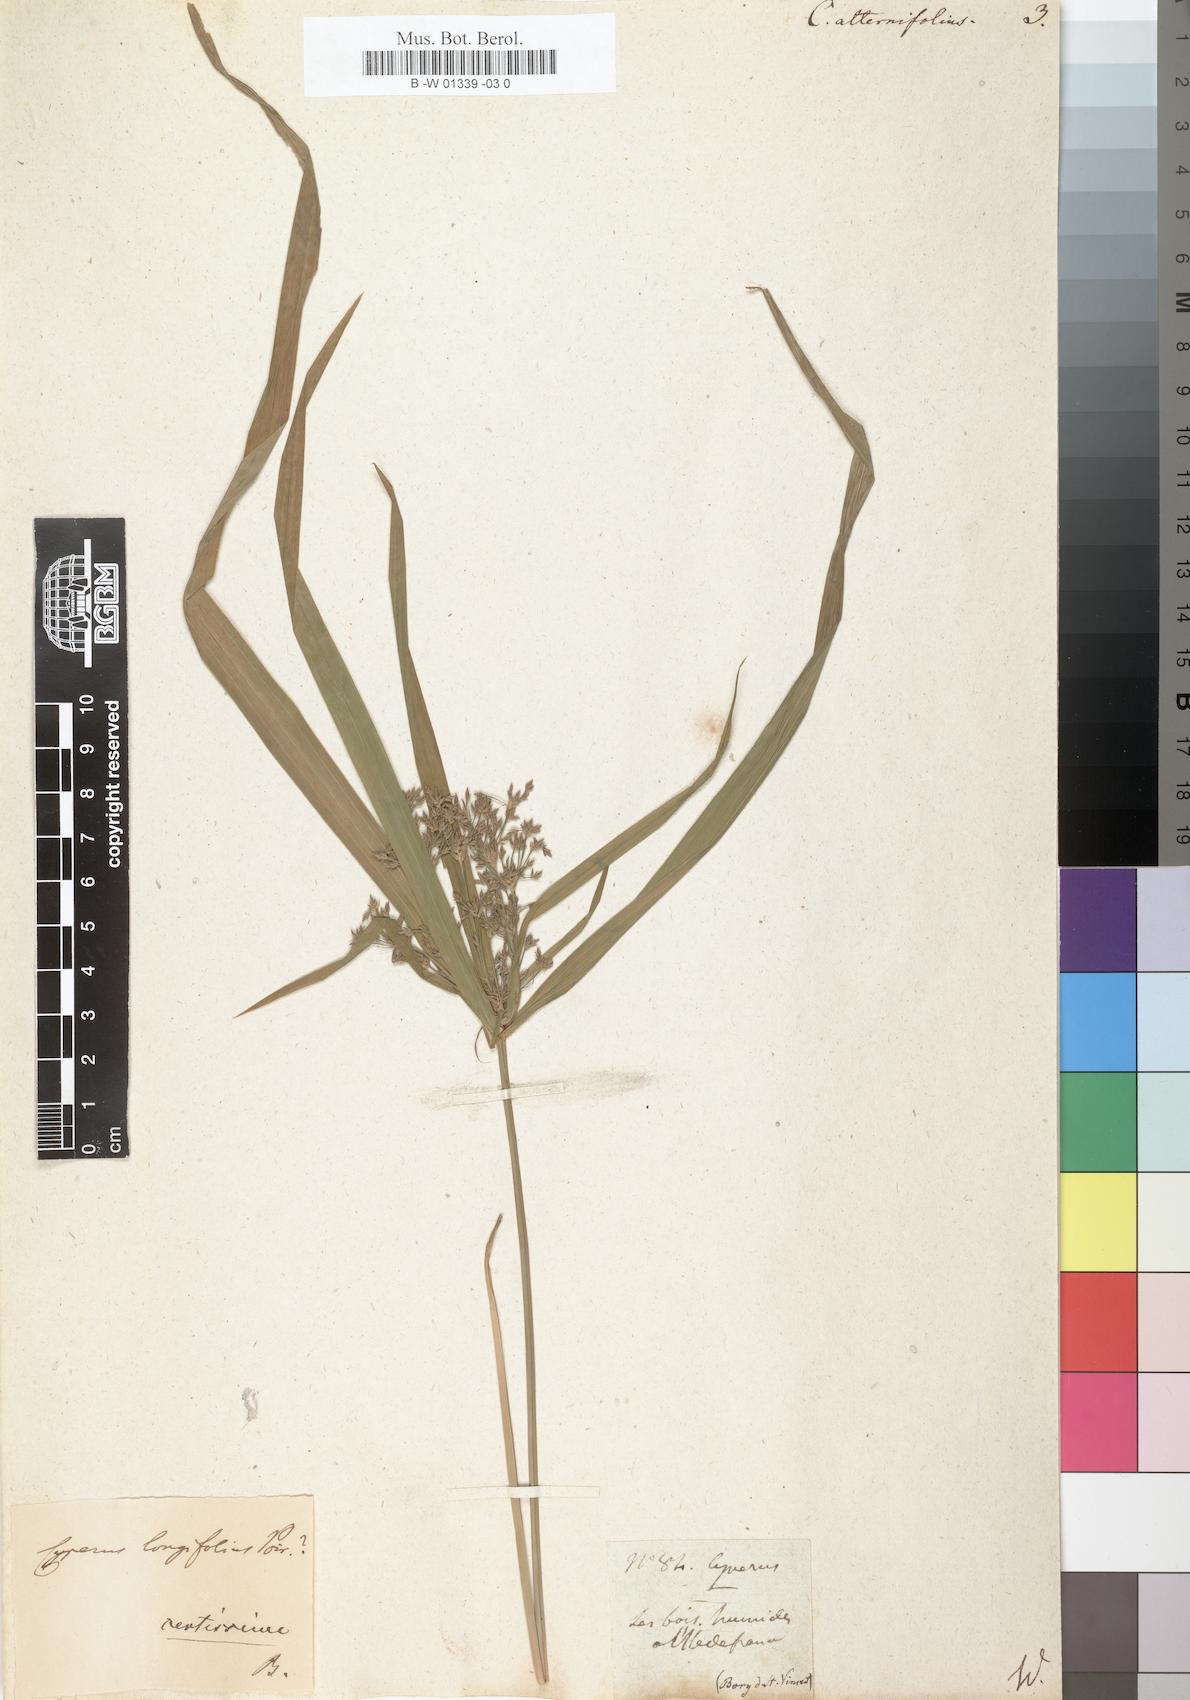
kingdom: Plantae
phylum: Tracheophyta
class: Liliopsida
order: Poales
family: Cyperaceae
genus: Cyperus
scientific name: Cyperus alternifolius
